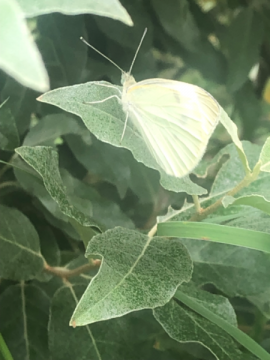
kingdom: Animalia
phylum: Arthropoda
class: Insecta
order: Lepidoptera
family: Pieridae
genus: Pieris
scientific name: Pieris rapae
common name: Cabbage White
